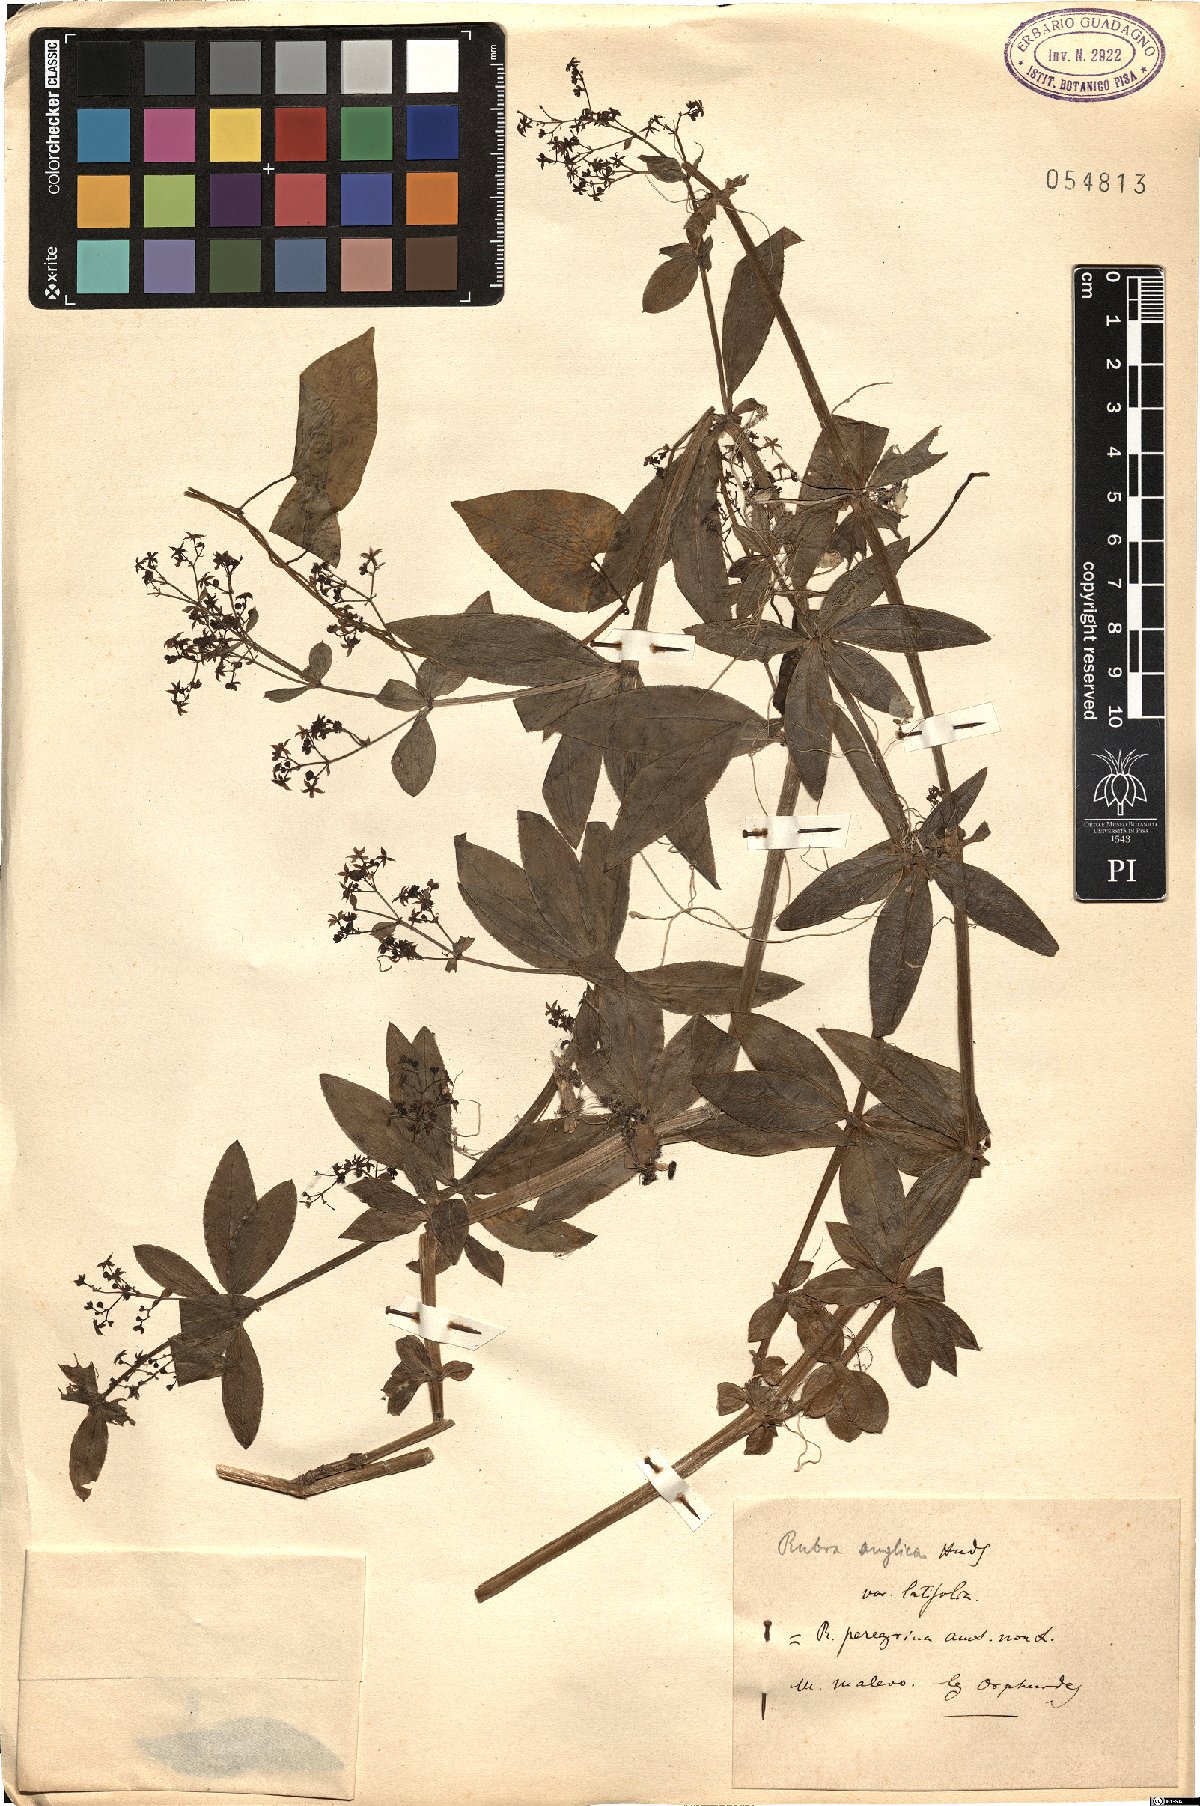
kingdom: Plantae
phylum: Tracheophyta
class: Magnoliopsida
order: Gentianales
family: Rubiaceae
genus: Rubia
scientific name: Rubia peregrina
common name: Wild madder
